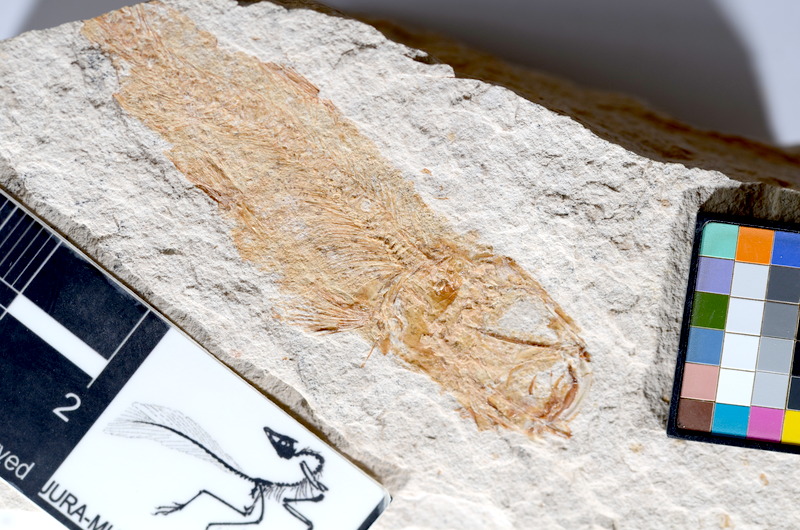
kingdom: Animalia
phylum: Chordata
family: Ascalaboidae
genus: Tharsis
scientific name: Tharsis dubius
